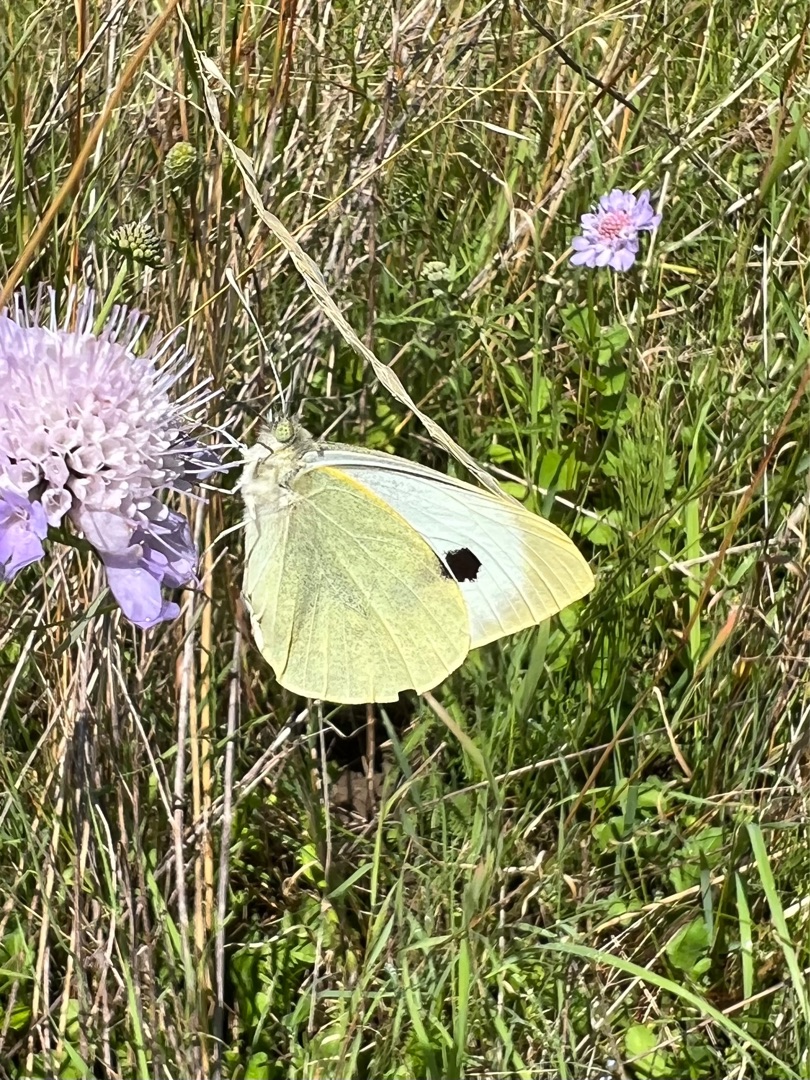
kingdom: Animalia
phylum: Arthropoda
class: Insecta
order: Lepidoptera
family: Pieridae
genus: Pieris
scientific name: Pieris brassicae
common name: Stor kålsommerfugl
